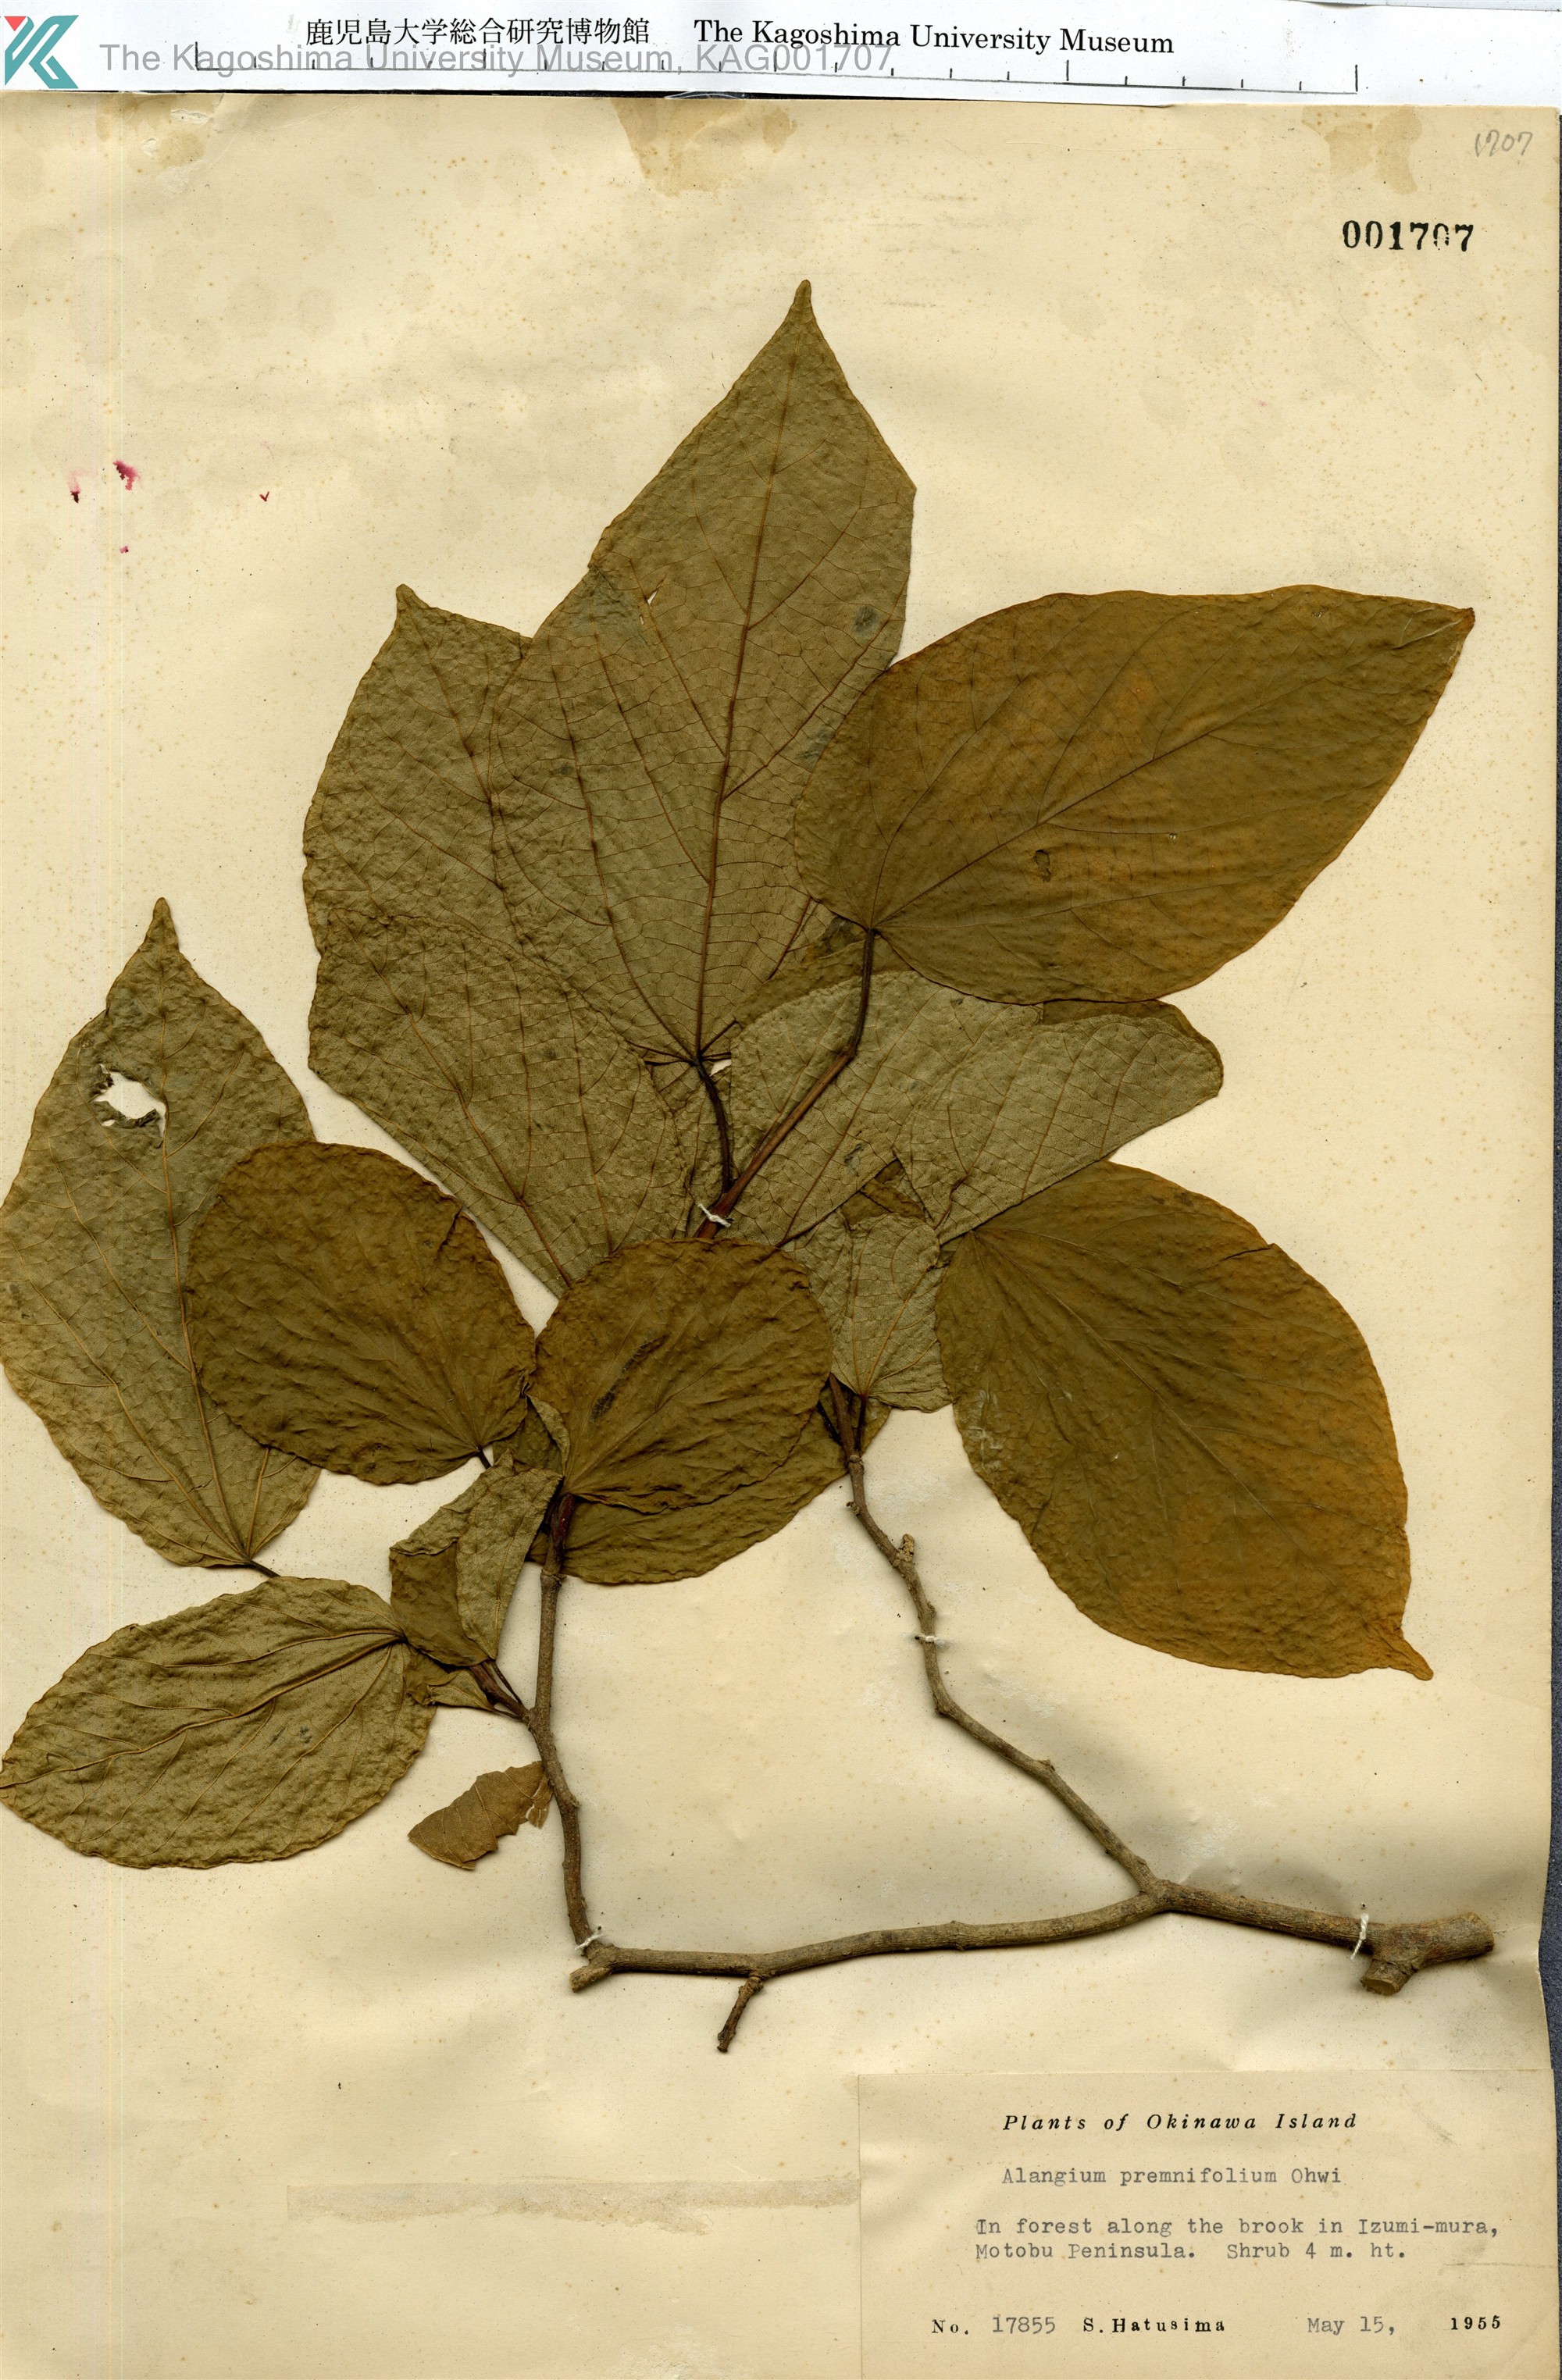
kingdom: Plantae
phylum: Tracheophyta
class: Magnoliopsida
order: Cornales
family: Cornaceae
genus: Alangium
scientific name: Alangium premnifolium
